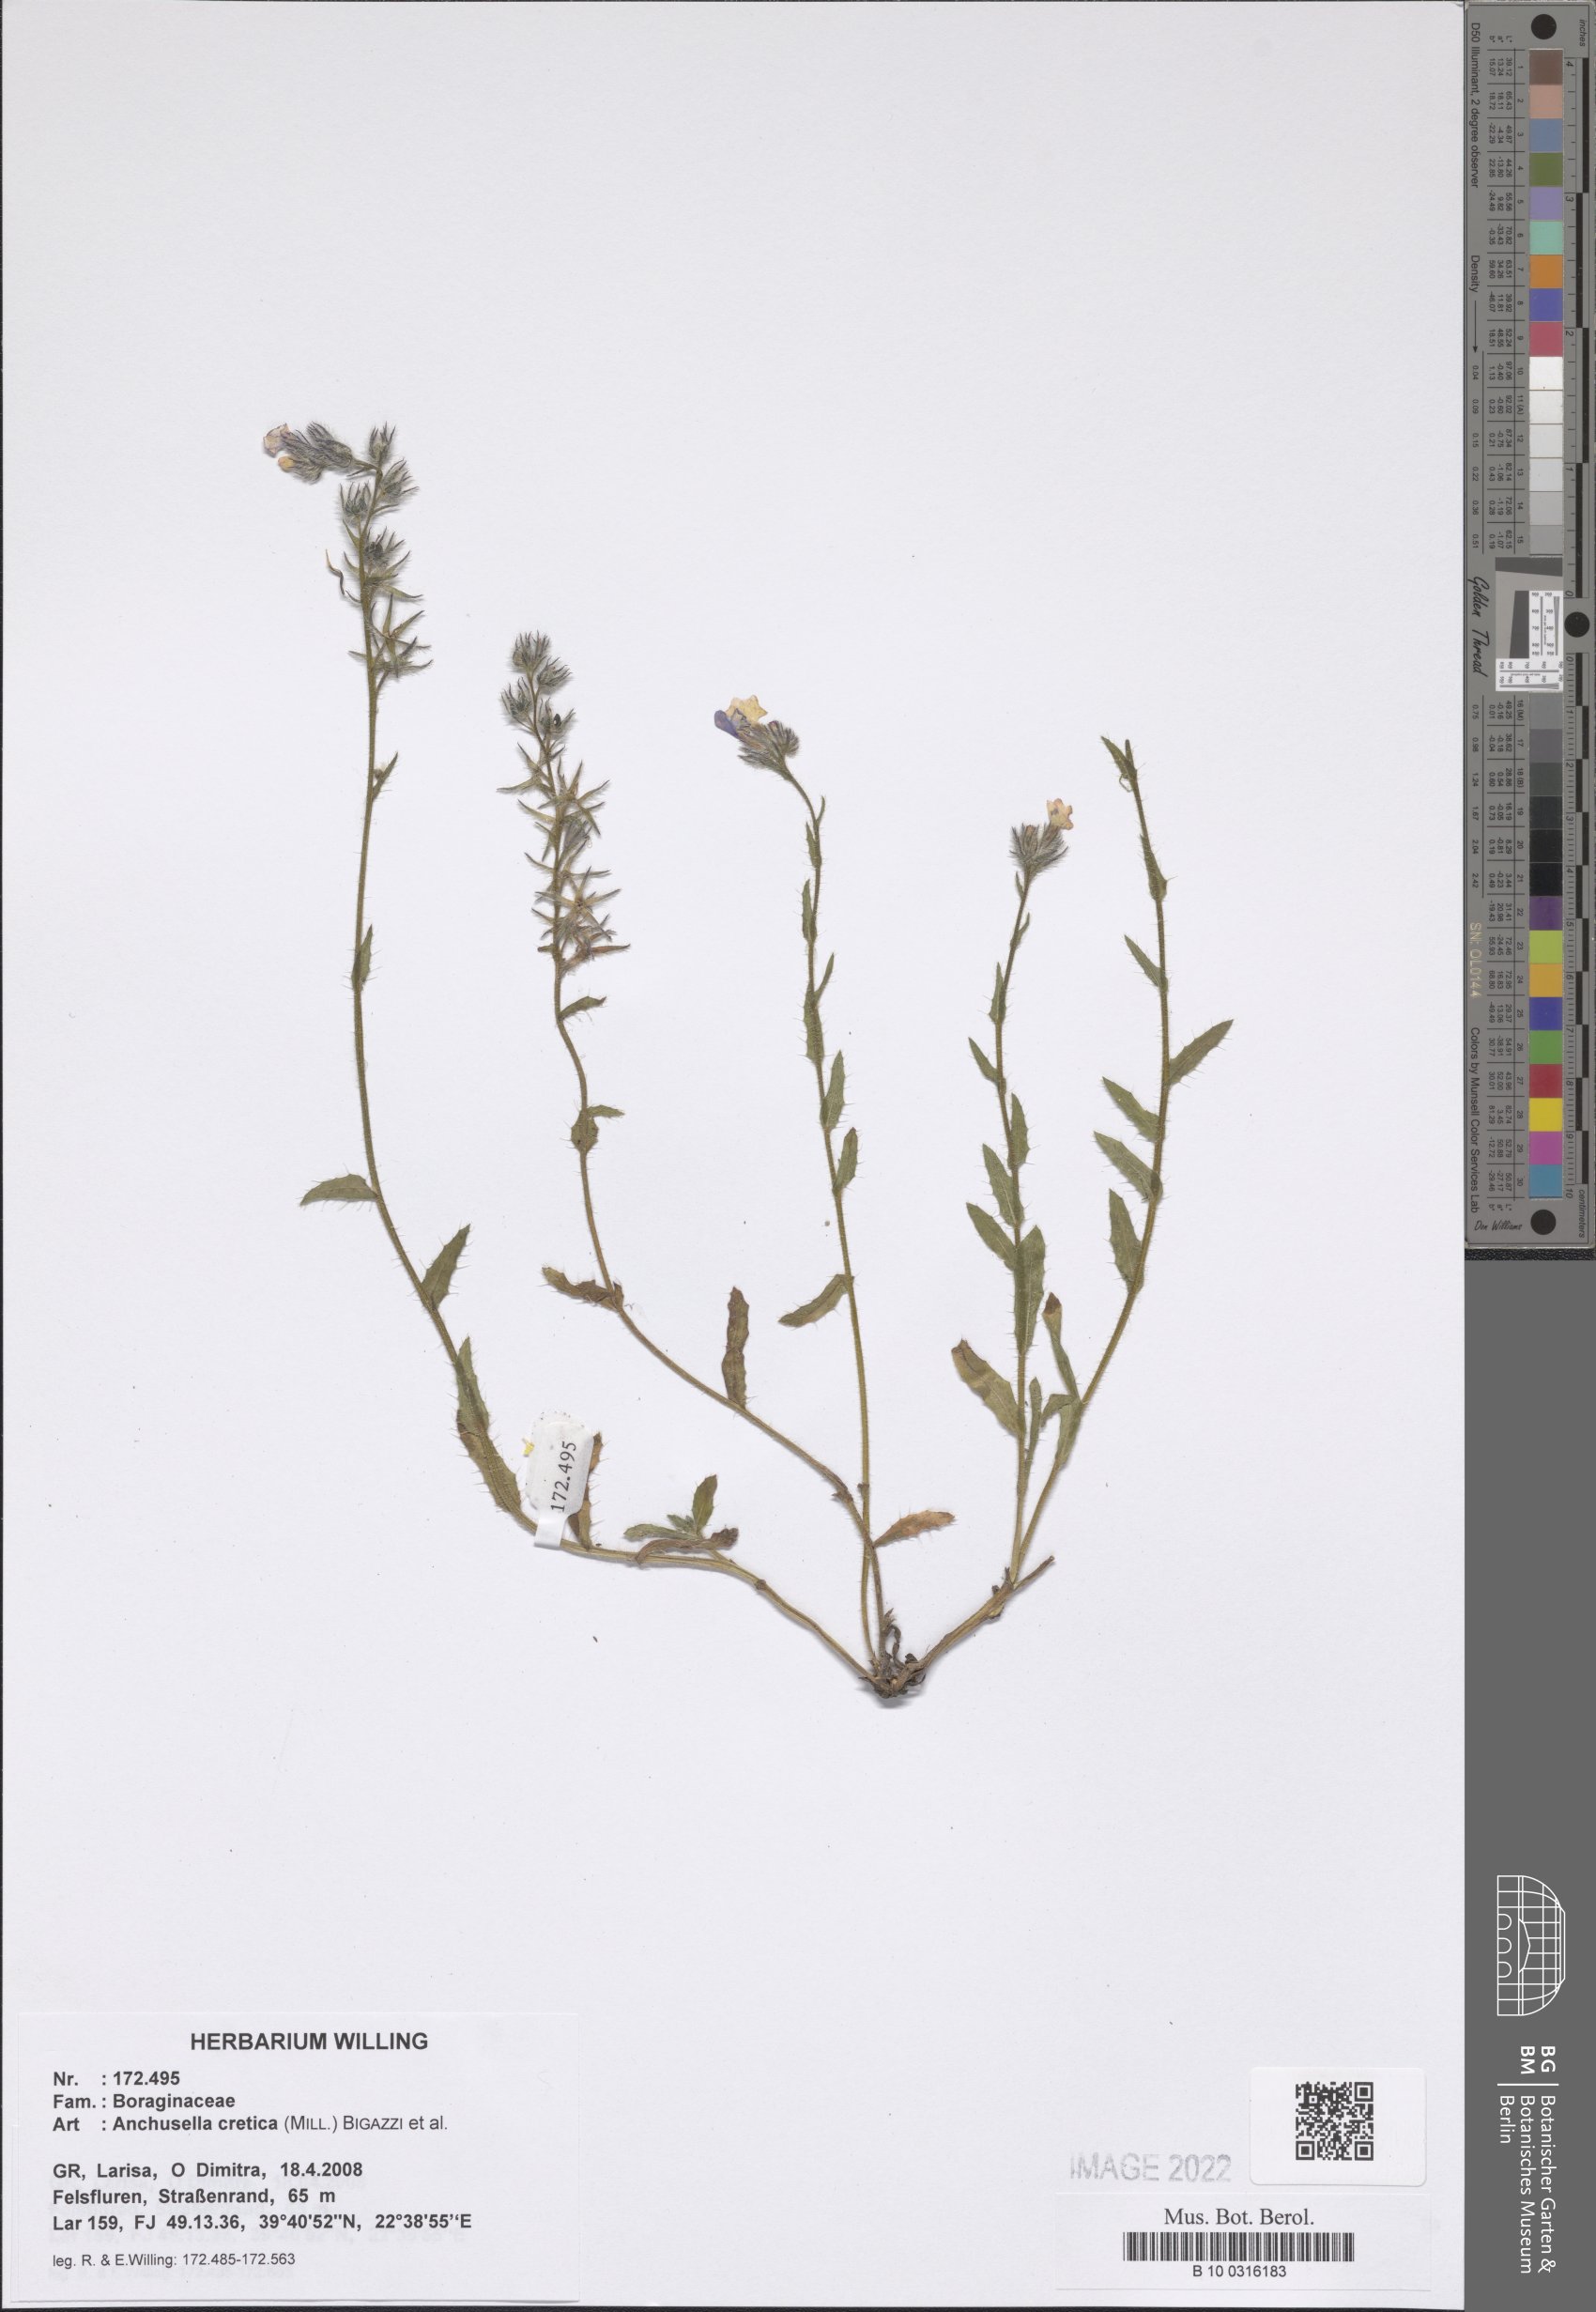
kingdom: Plantae
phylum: Tracheophyta
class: Magnoliopsida
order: Boraginales
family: Boraginaceae
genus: Anchusella
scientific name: Anchusella cretica
